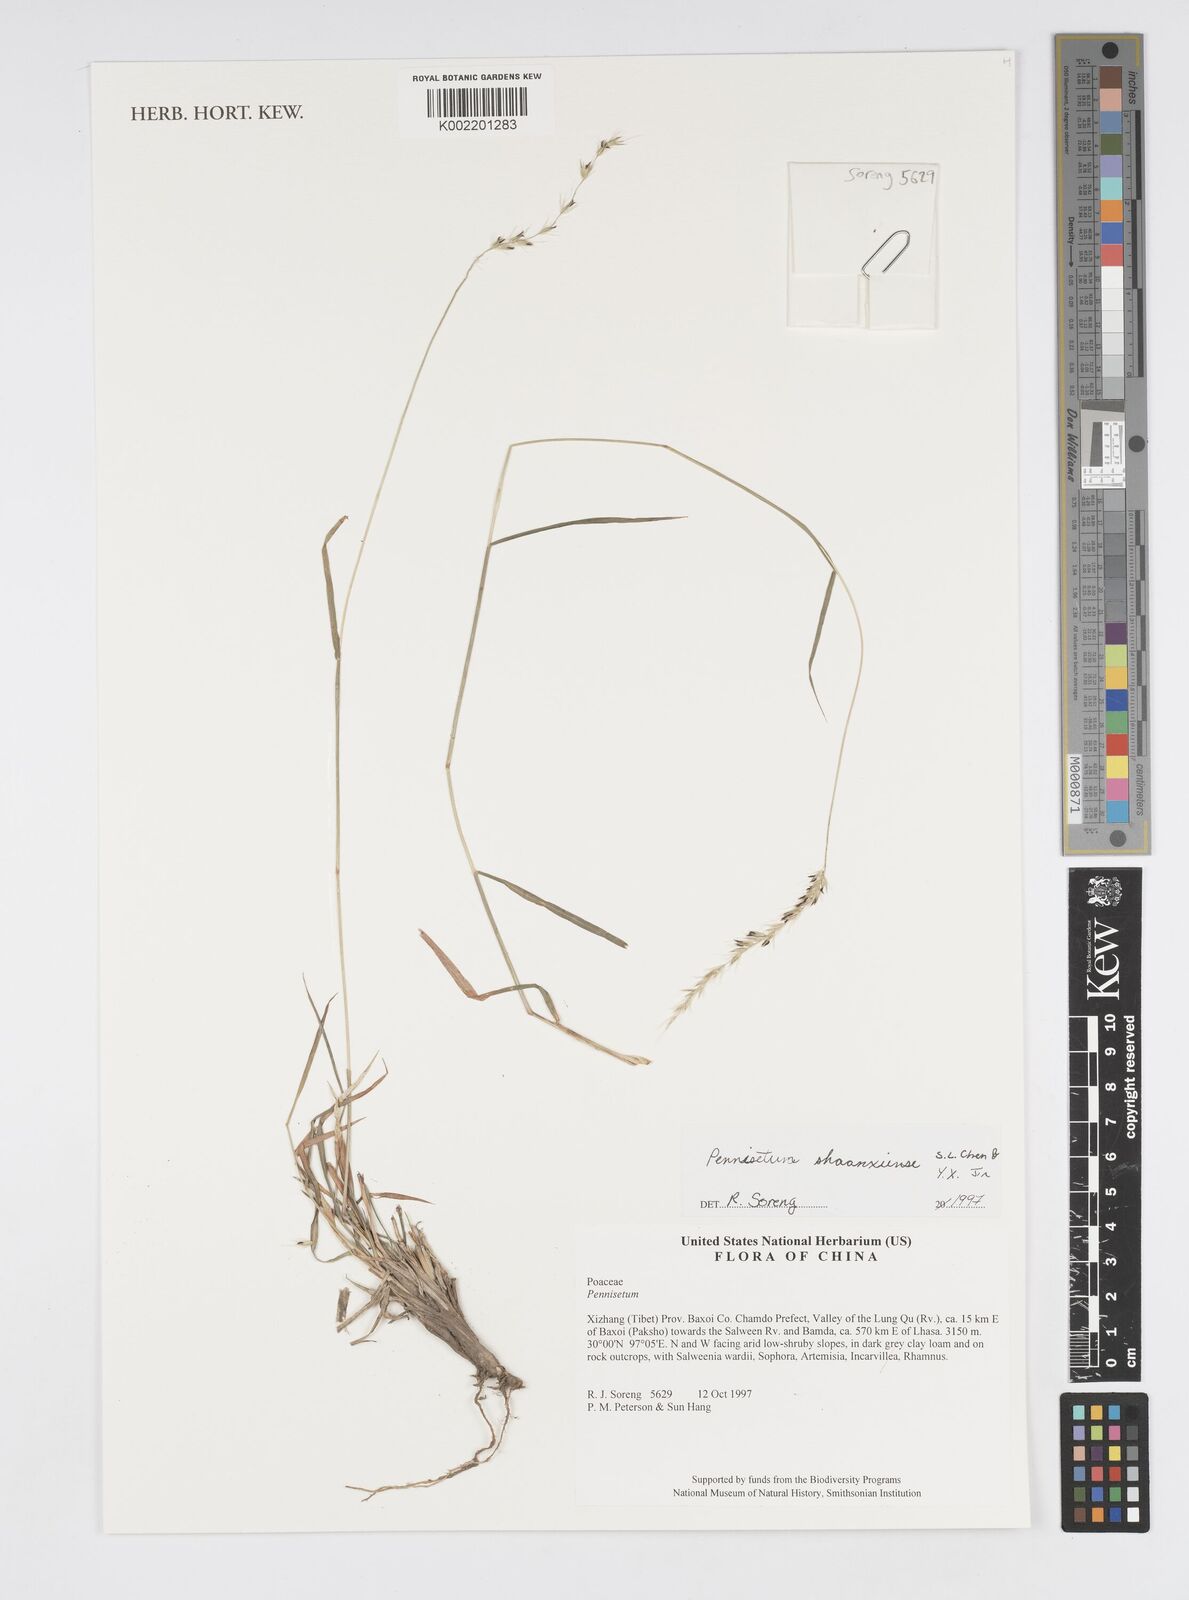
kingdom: Plantae
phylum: Tracheophyta
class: Liliopsida
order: Poales
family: Poaceae
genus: Cenchrus
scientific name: Cenchrus shaanxiensis
